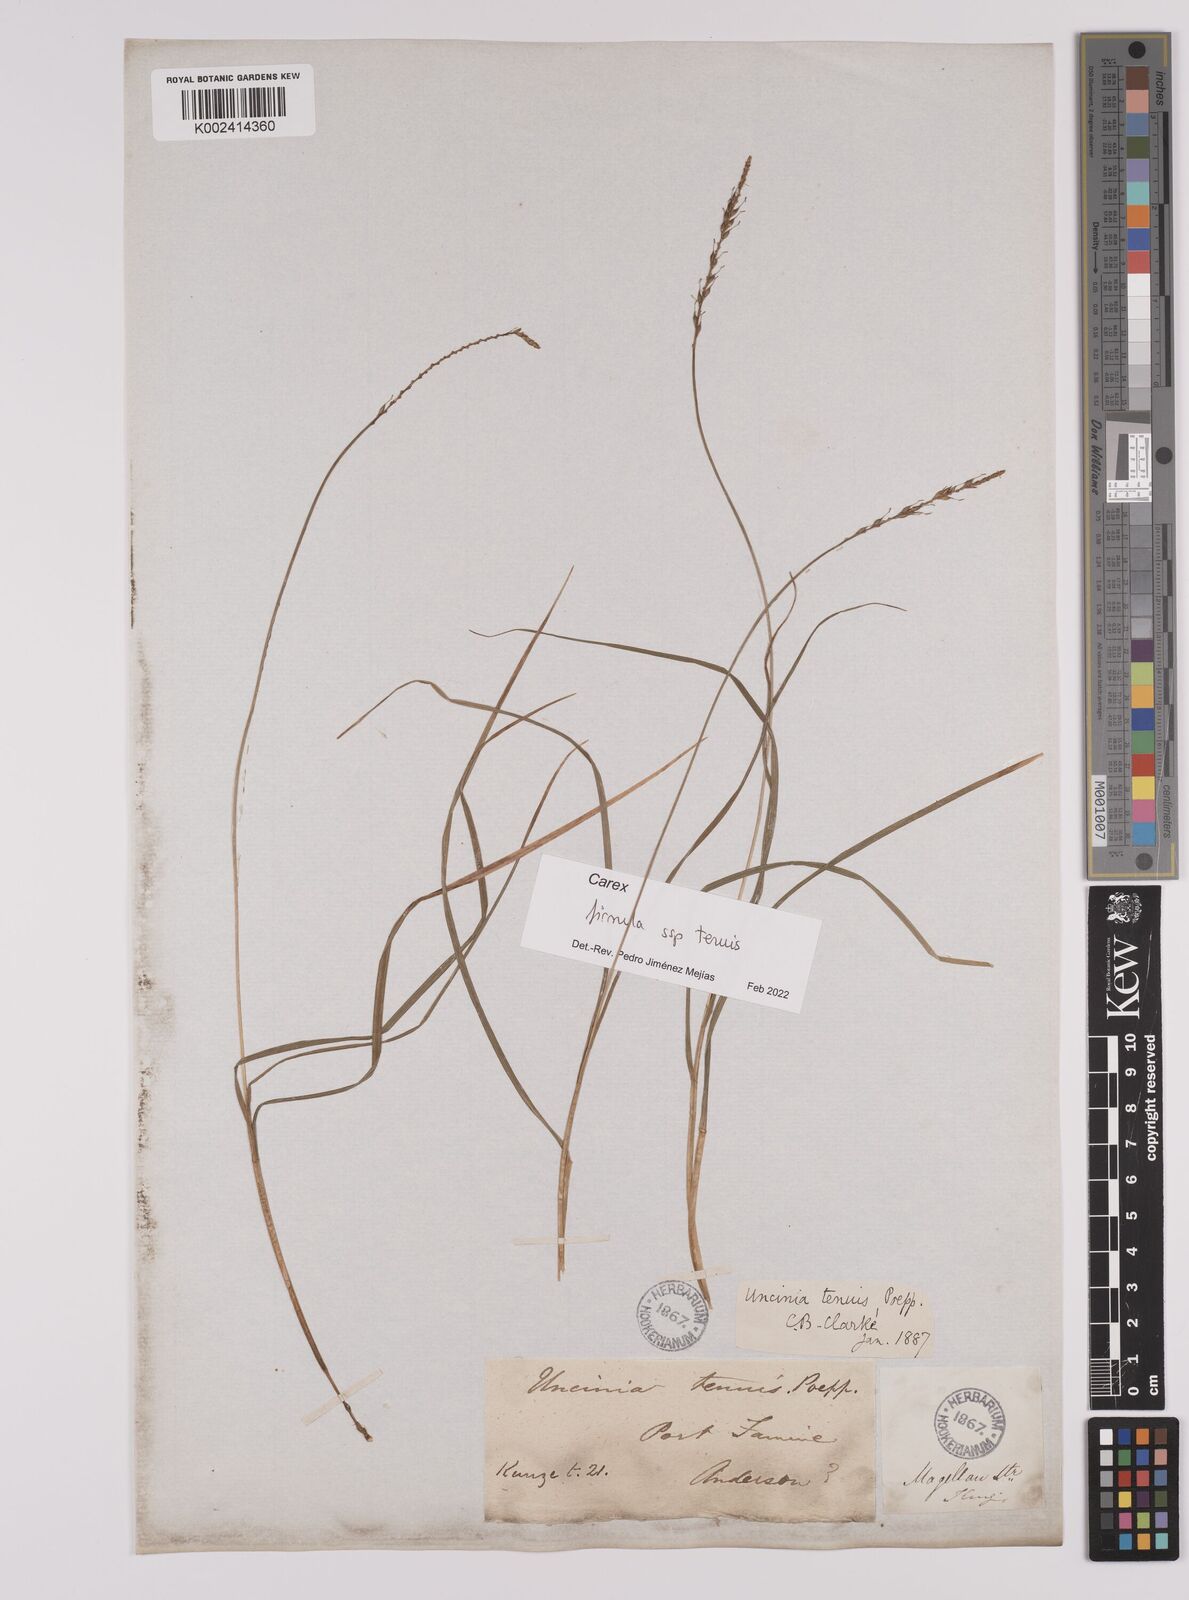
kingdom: Plantae
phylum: Tracheophyta
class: Liliopsida
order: Poales
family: Cyperaceae
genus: Carex
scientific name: Carex firmula
